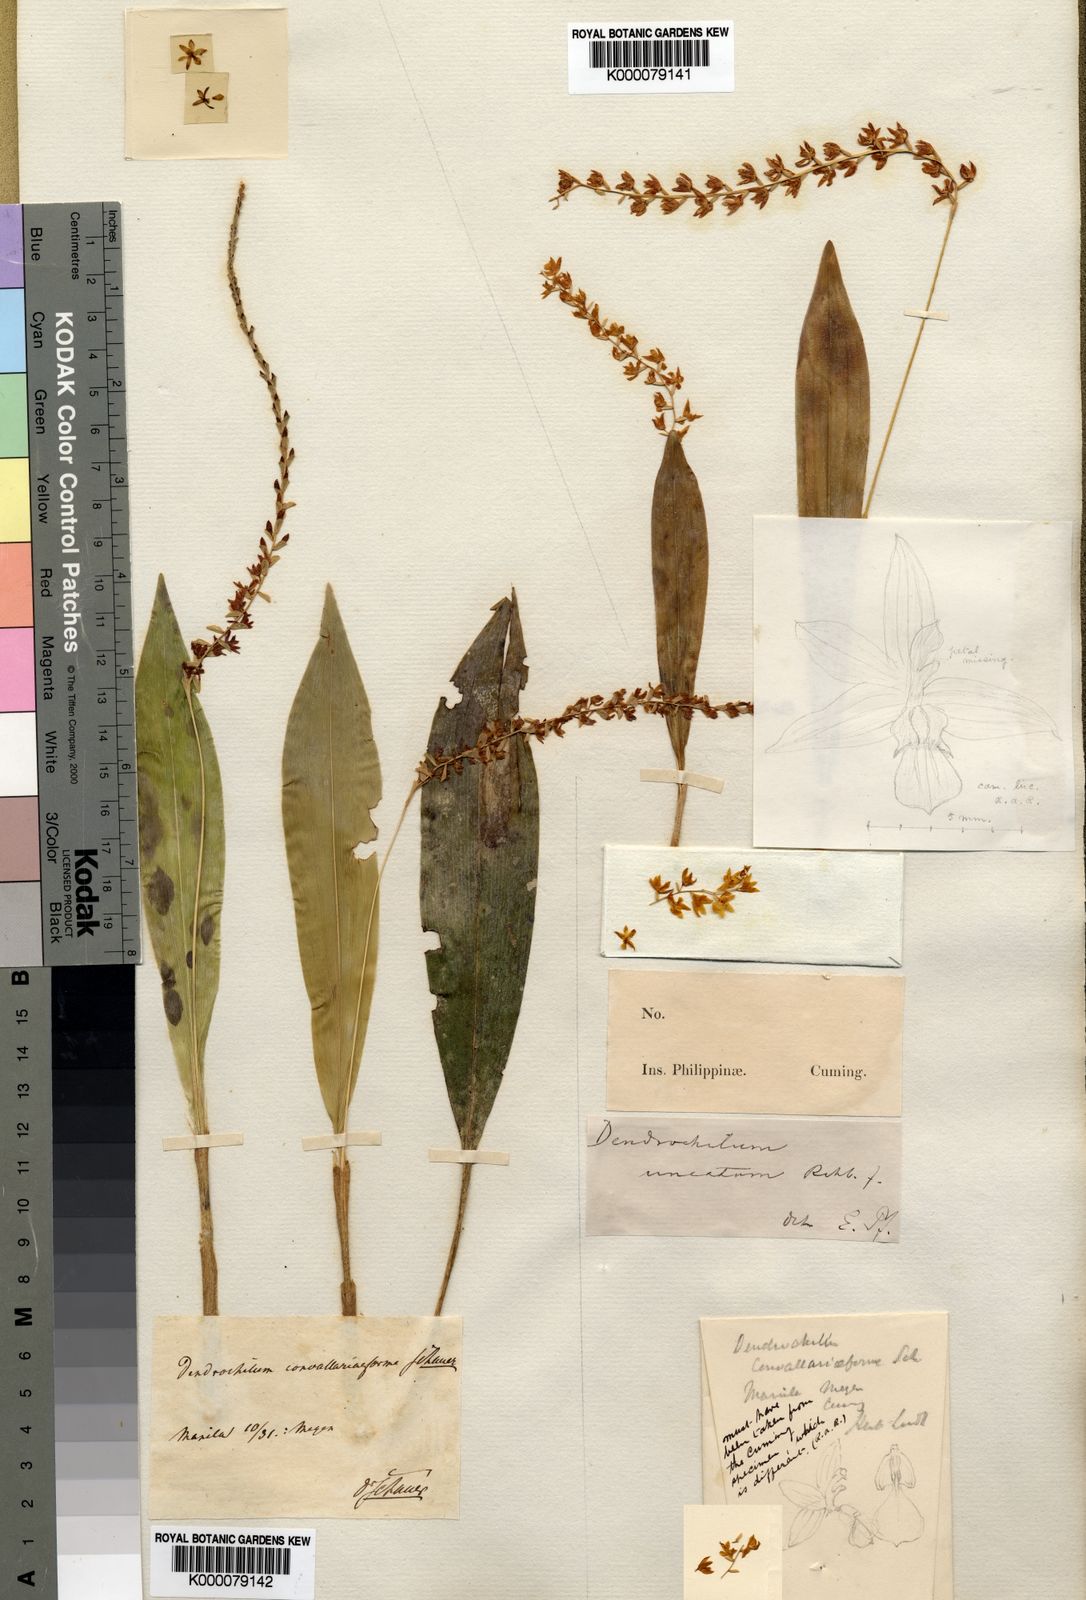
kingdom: Plantae
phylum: Tracheophyta
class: Liliopsida
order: Asparagales
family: Orchidaceae
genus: Coelogyne
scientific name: Coelogyne convallariiformis
